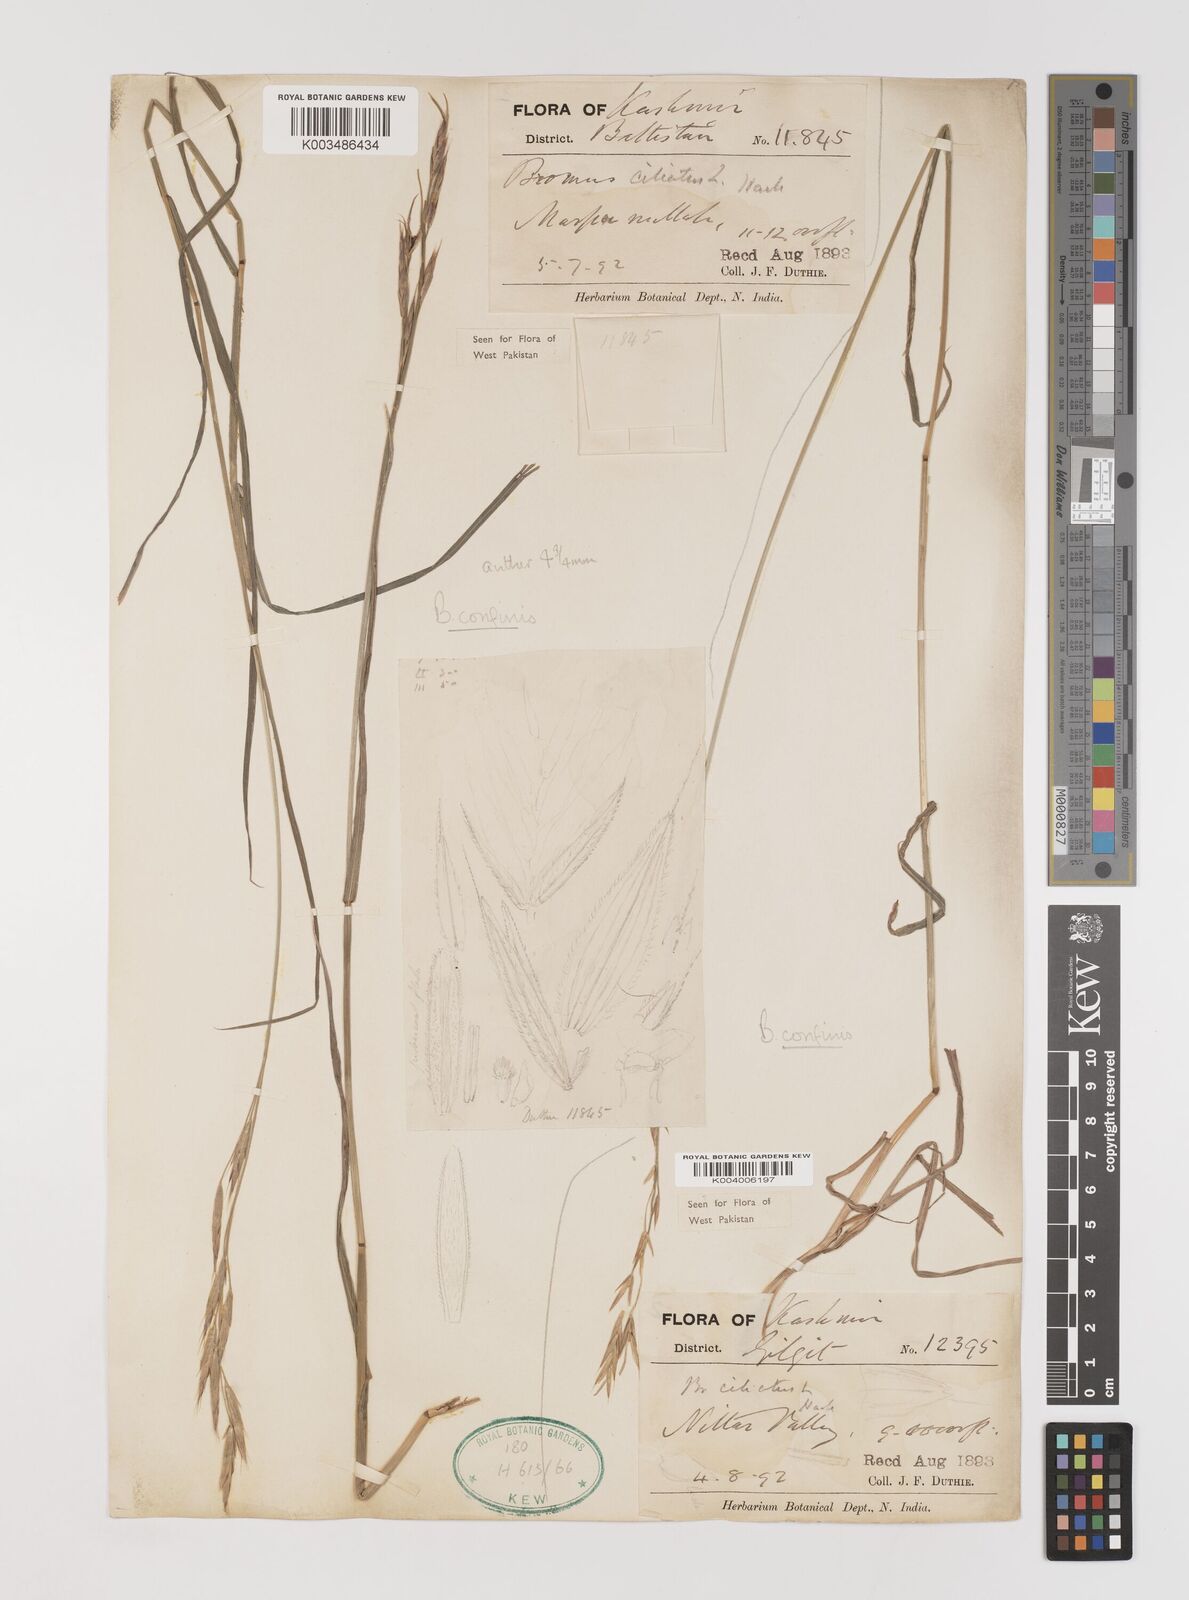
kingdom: Plantae
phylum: Tracheophyta
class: Liliopsida
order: Poales
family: Poaceae
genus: Bromus
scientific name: Bromus confinis
